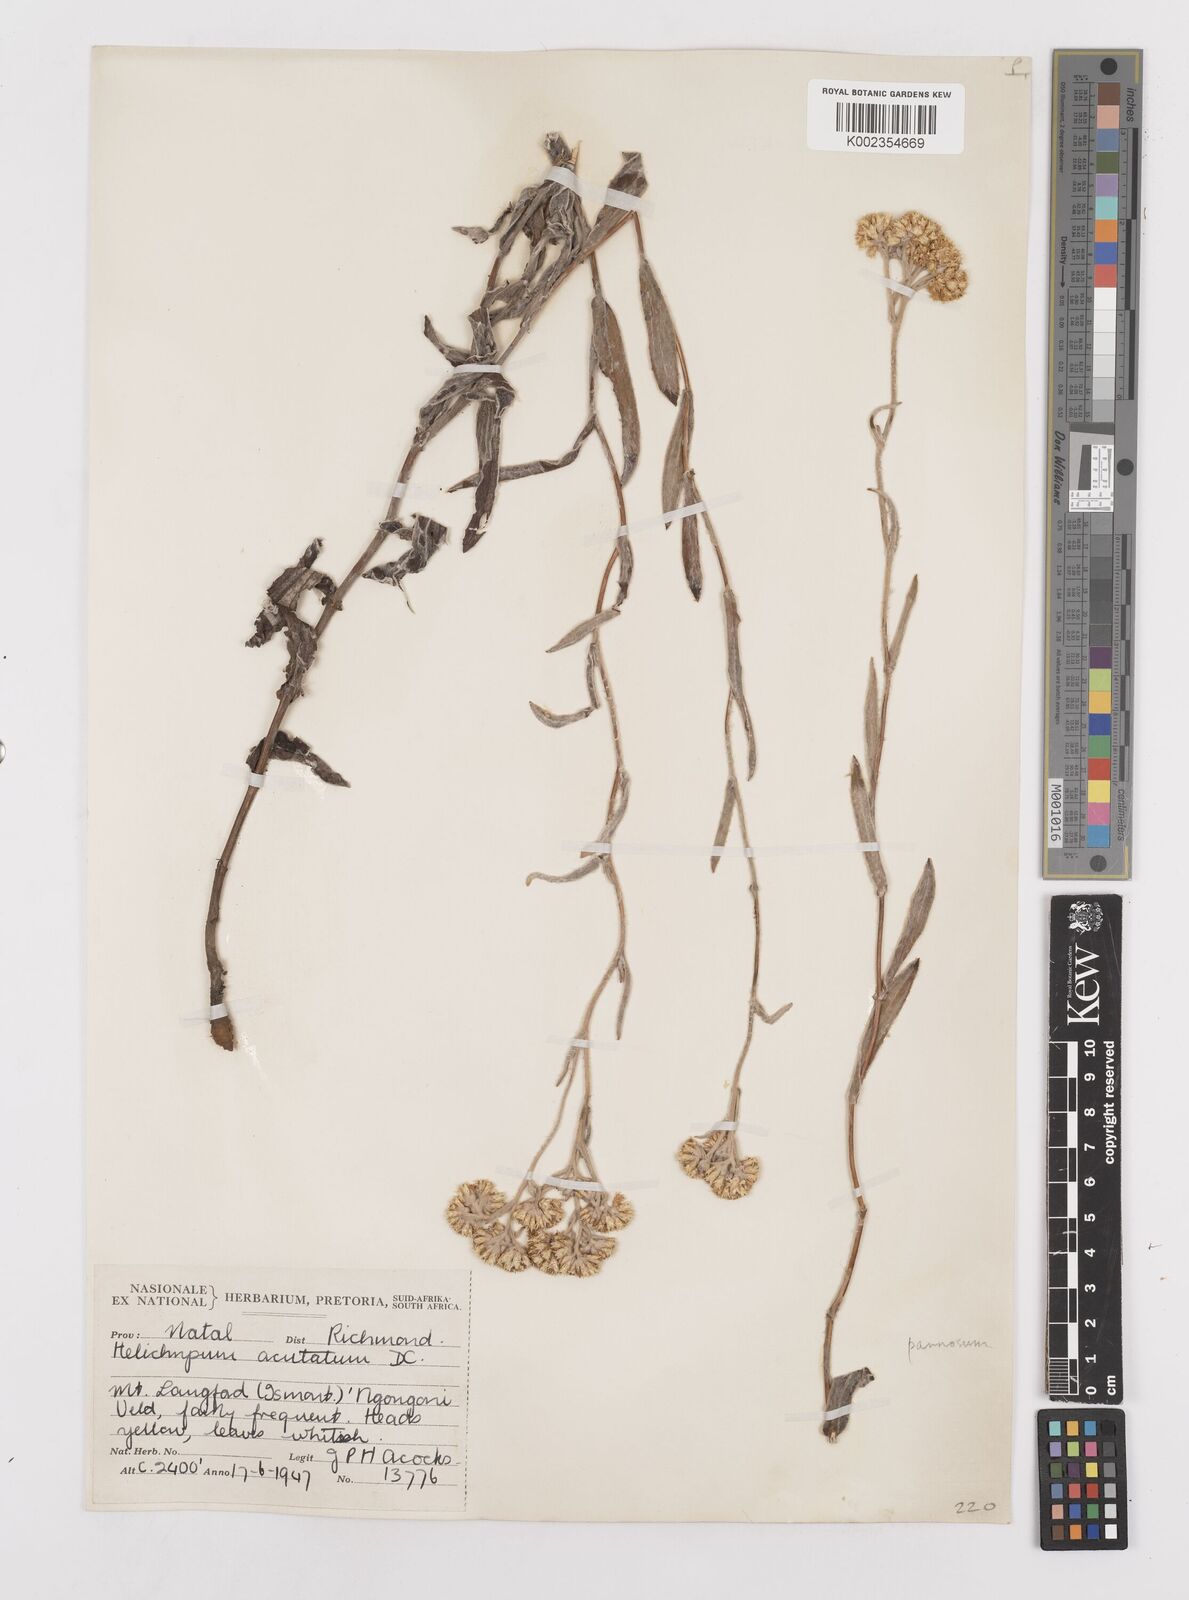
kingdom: Plantae
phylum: Tracheophyta
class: Magnoliopsida
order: Asterales
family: Asteraceae
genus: Helichrysum
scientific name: Helichrysum pannosum
